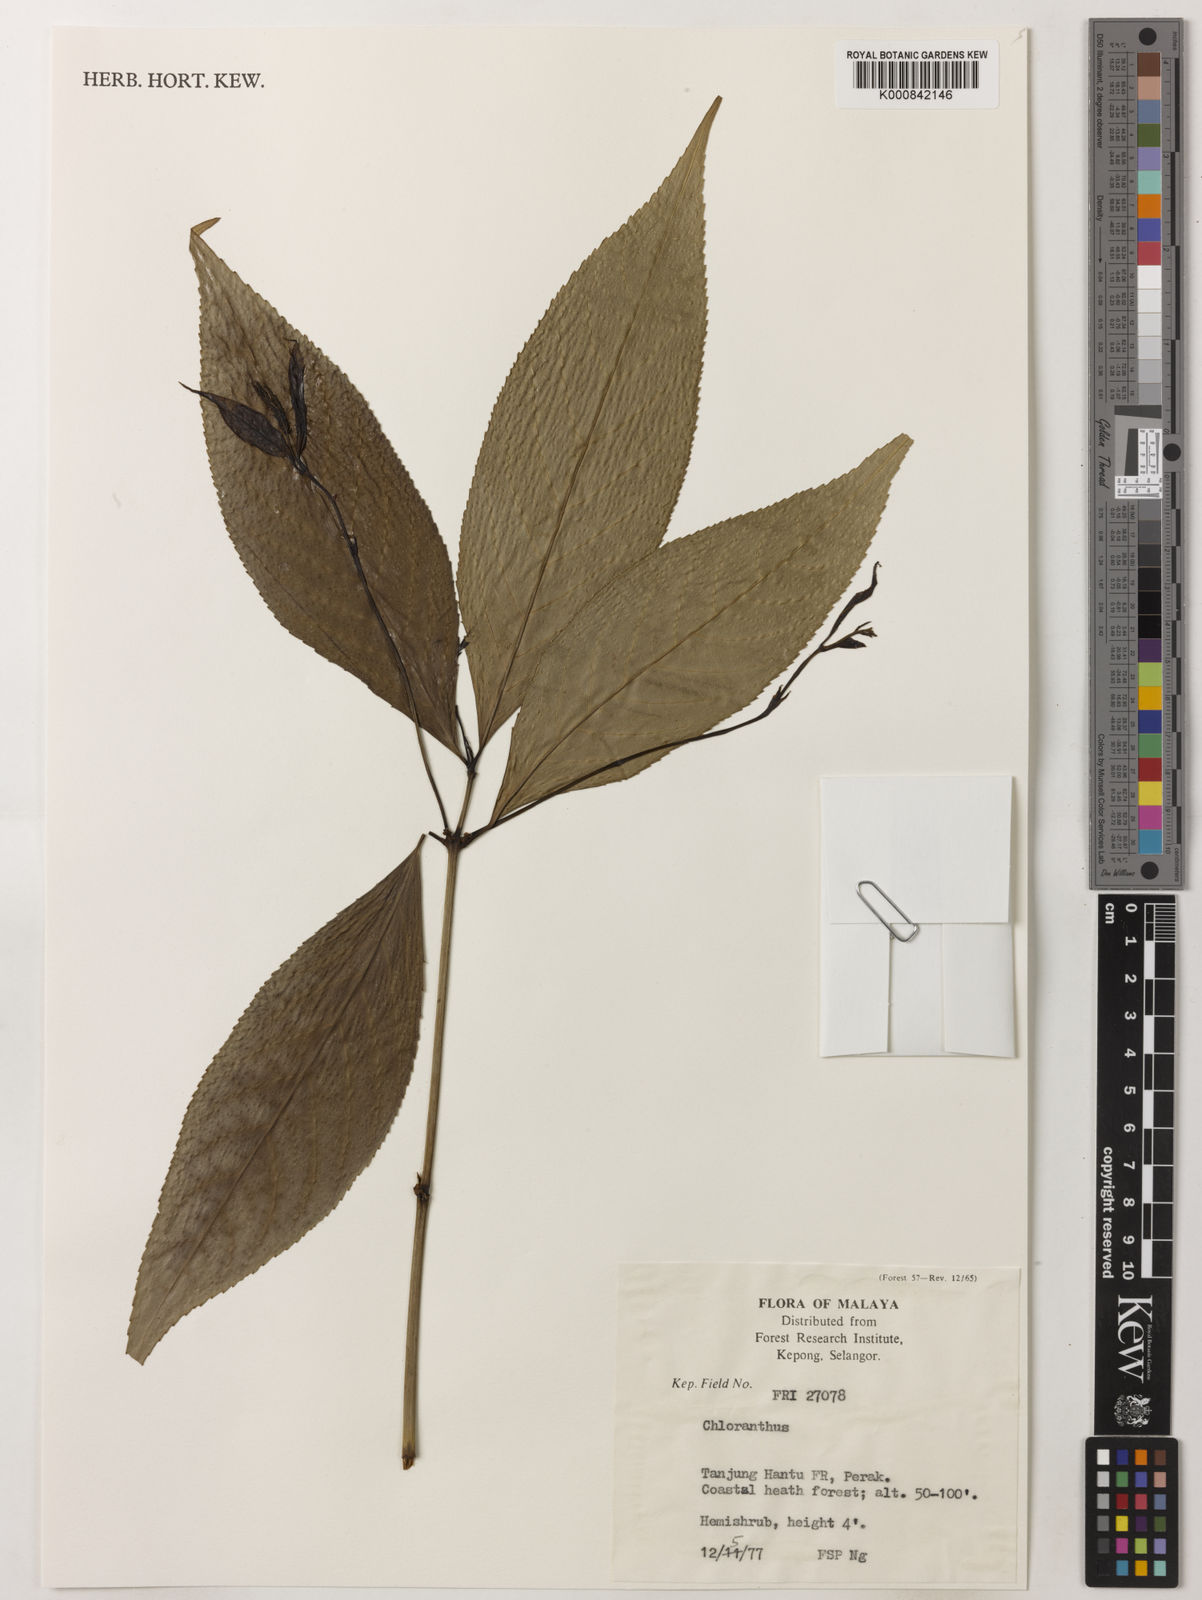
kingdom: Plantae
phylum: Tracheophyta
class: Magnoliopsida
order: Chloranthales
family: Chloranthaceae
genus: Chloranthus
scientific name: Chloranthus
